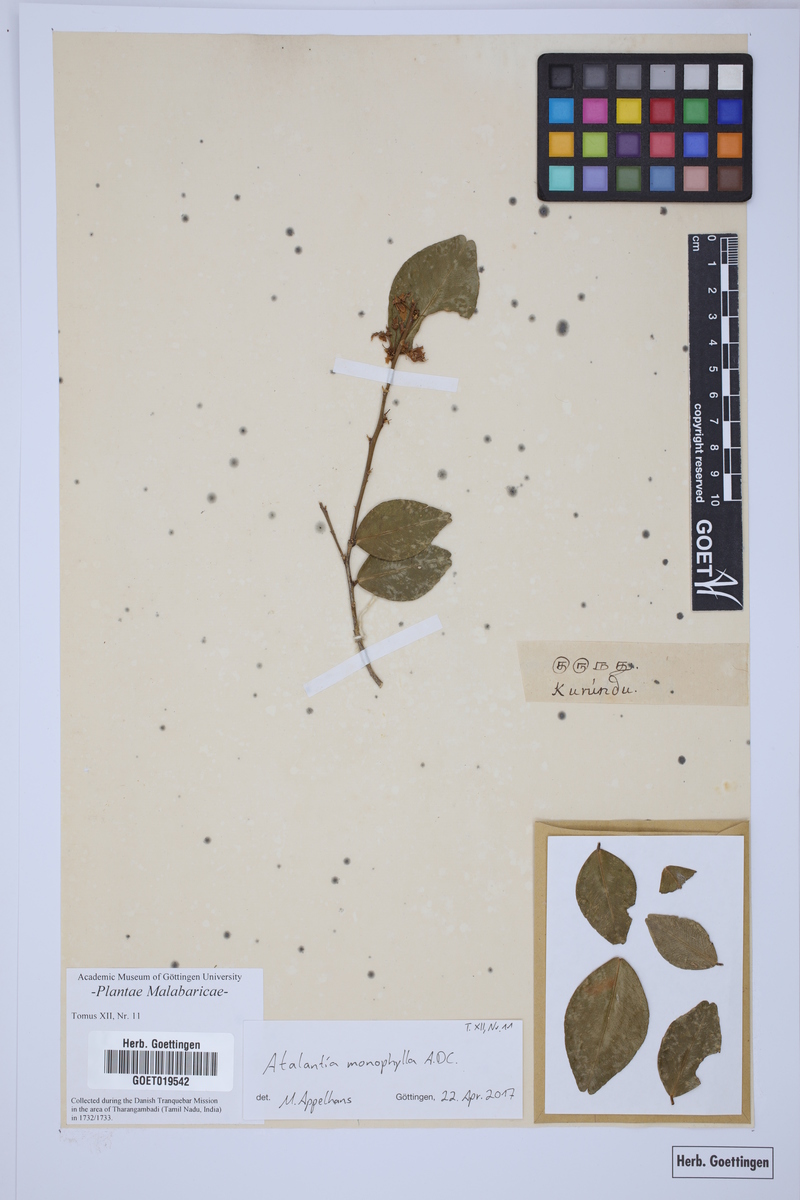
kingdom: Plantae
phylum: Tracheophyta
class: Magnoliopsida
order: Sapindales
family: Rutaceae
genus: Atalantia
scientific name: Atalantia monophylla
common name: Indian-atalantia
